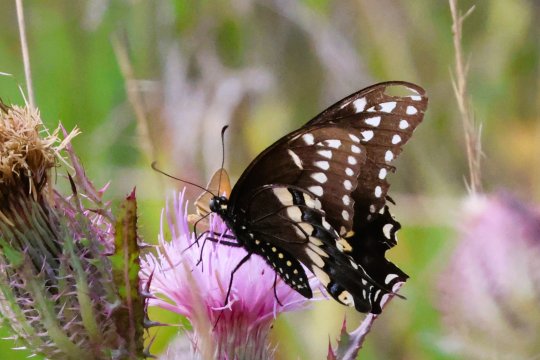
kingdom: Animalia
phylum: Arthropoda
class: Insecta
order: Lepidoptera
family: Papilionidae
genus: Papilio
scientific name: Papilio polyxenes
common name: Black Swallowtail
